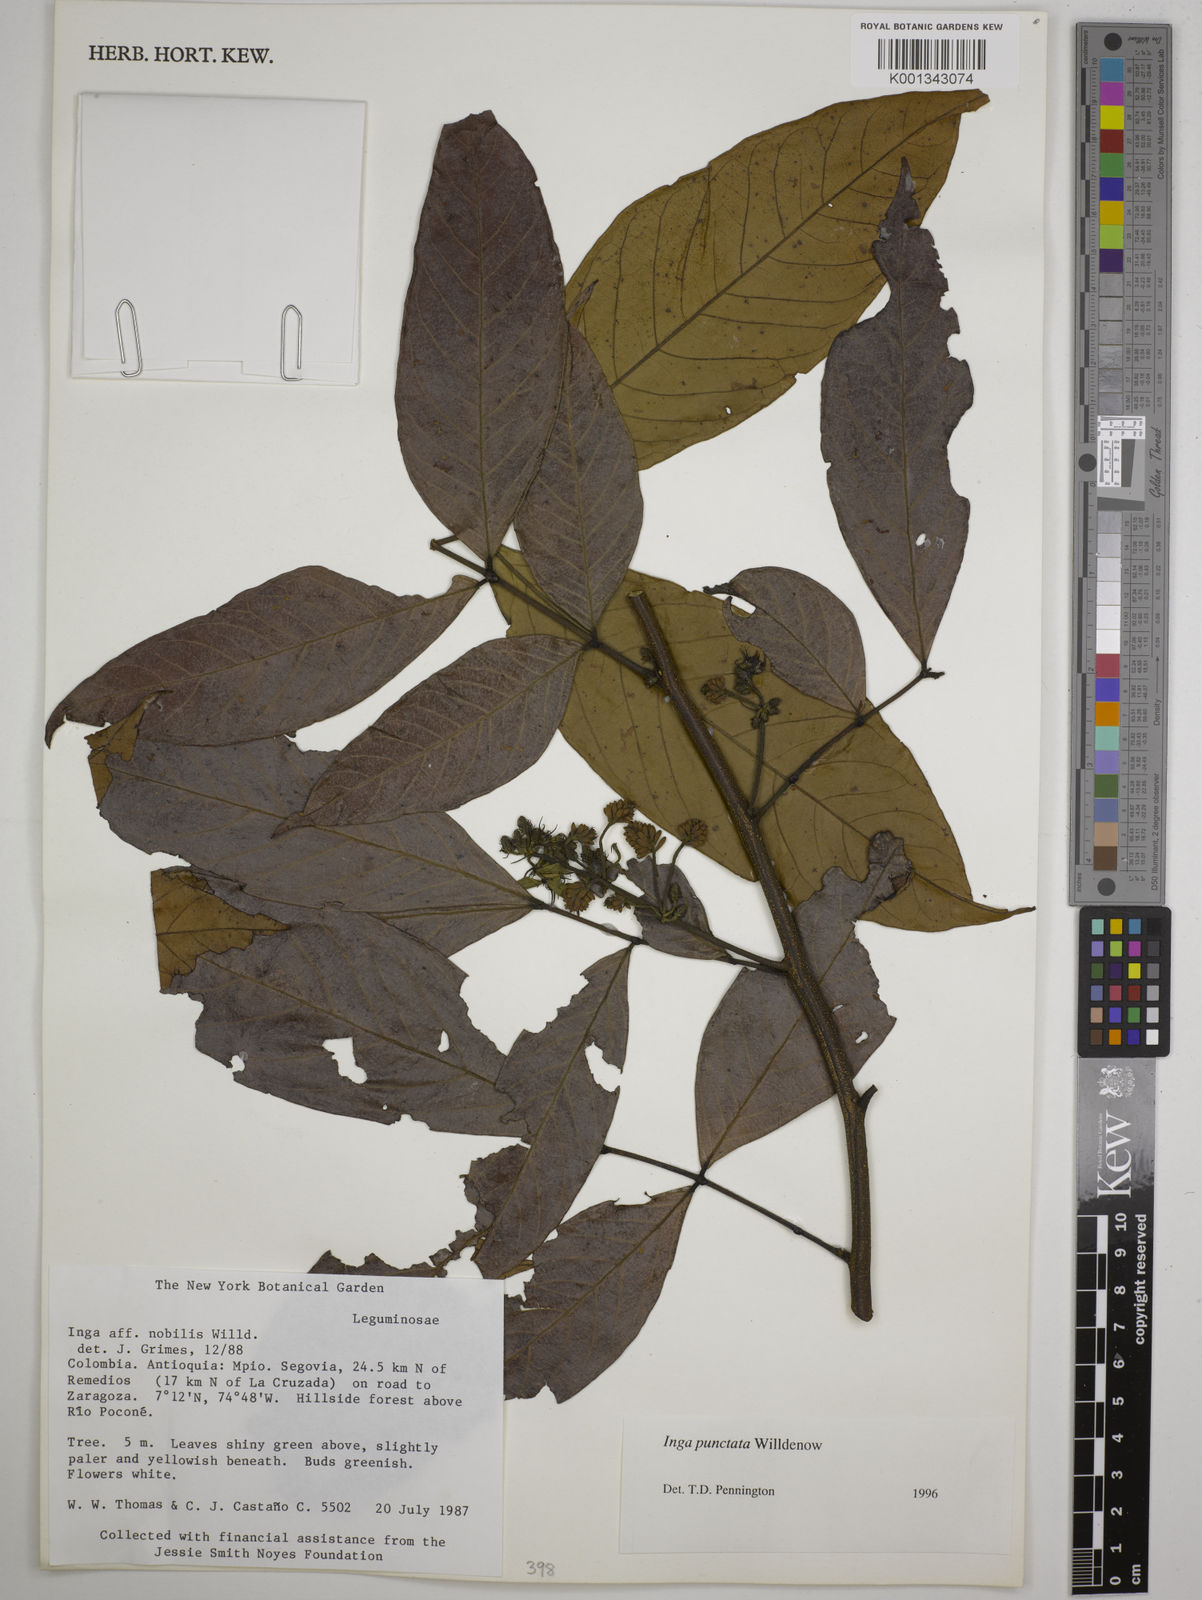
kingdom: Plantae
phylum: Tracheophyta
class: Magnoliopsida
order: Fabales
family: Fabaceae
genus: Inga
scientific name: Inga punctata
